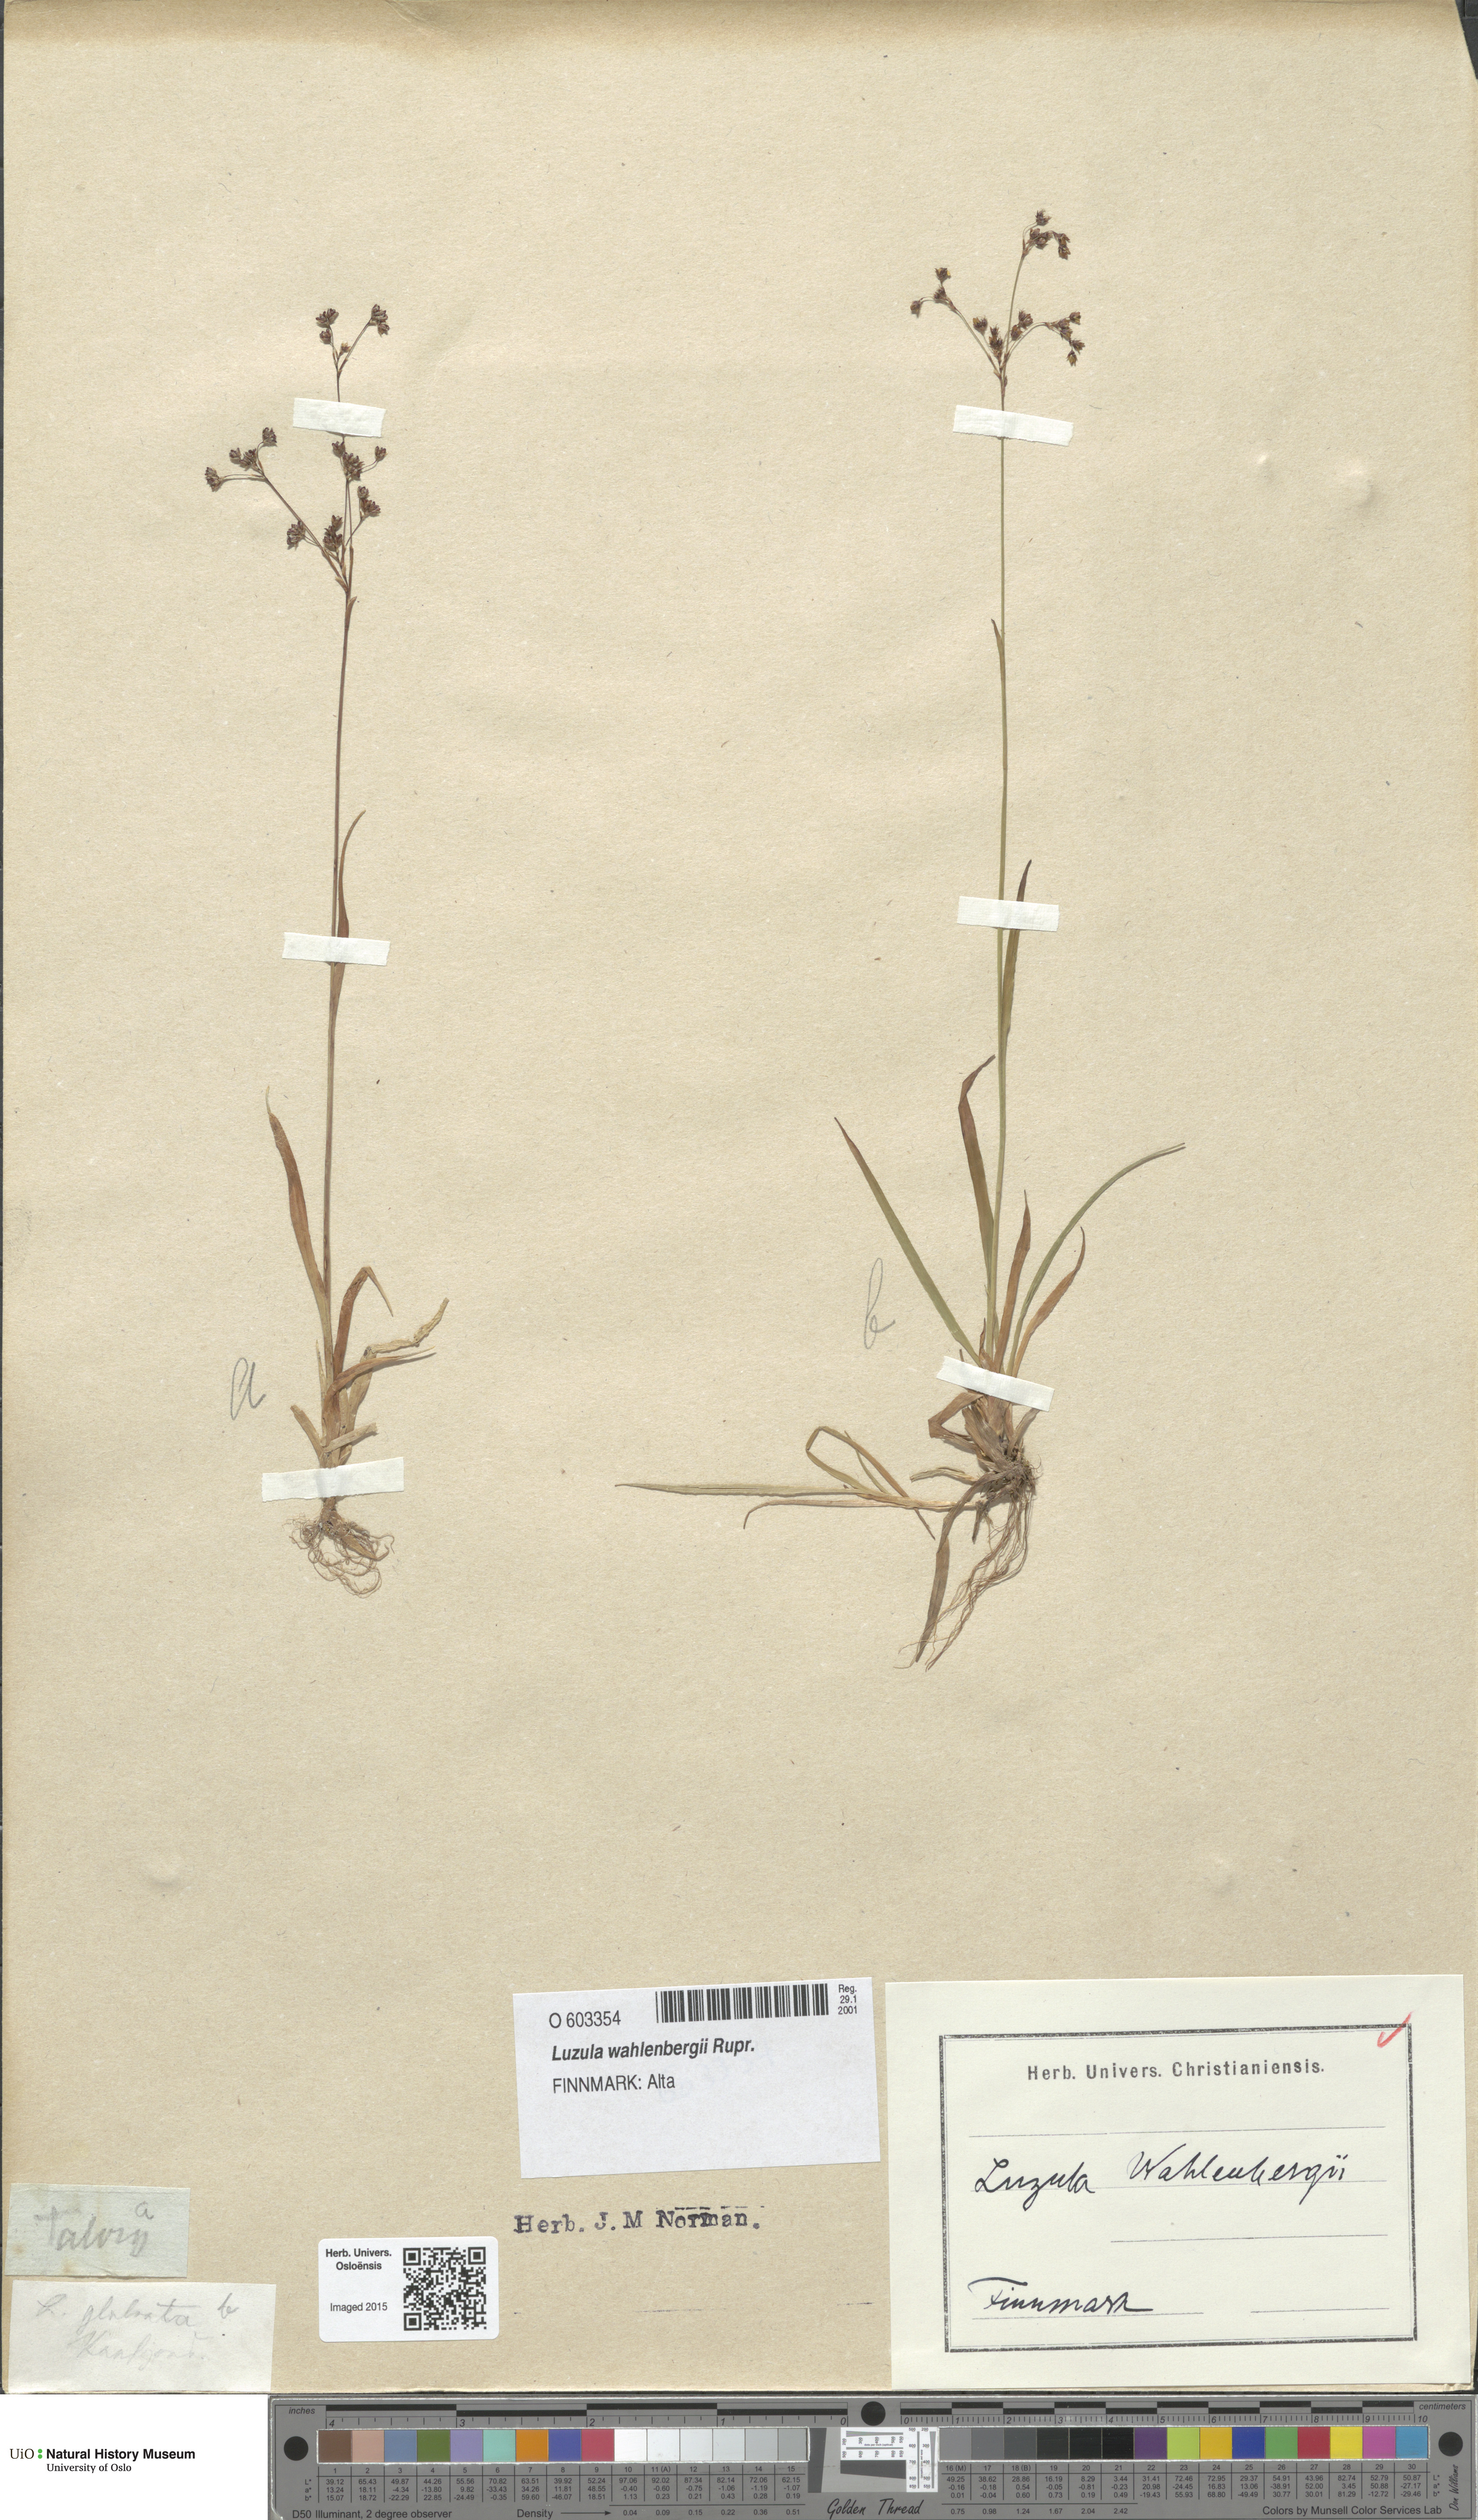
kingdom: Plantae
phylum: Tracheophyta
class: Liliopsida
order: Poales
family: Juncaceae
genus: Luzula
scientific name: Luzula wahlenbergii
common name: Wahlenberg's wood-rush
